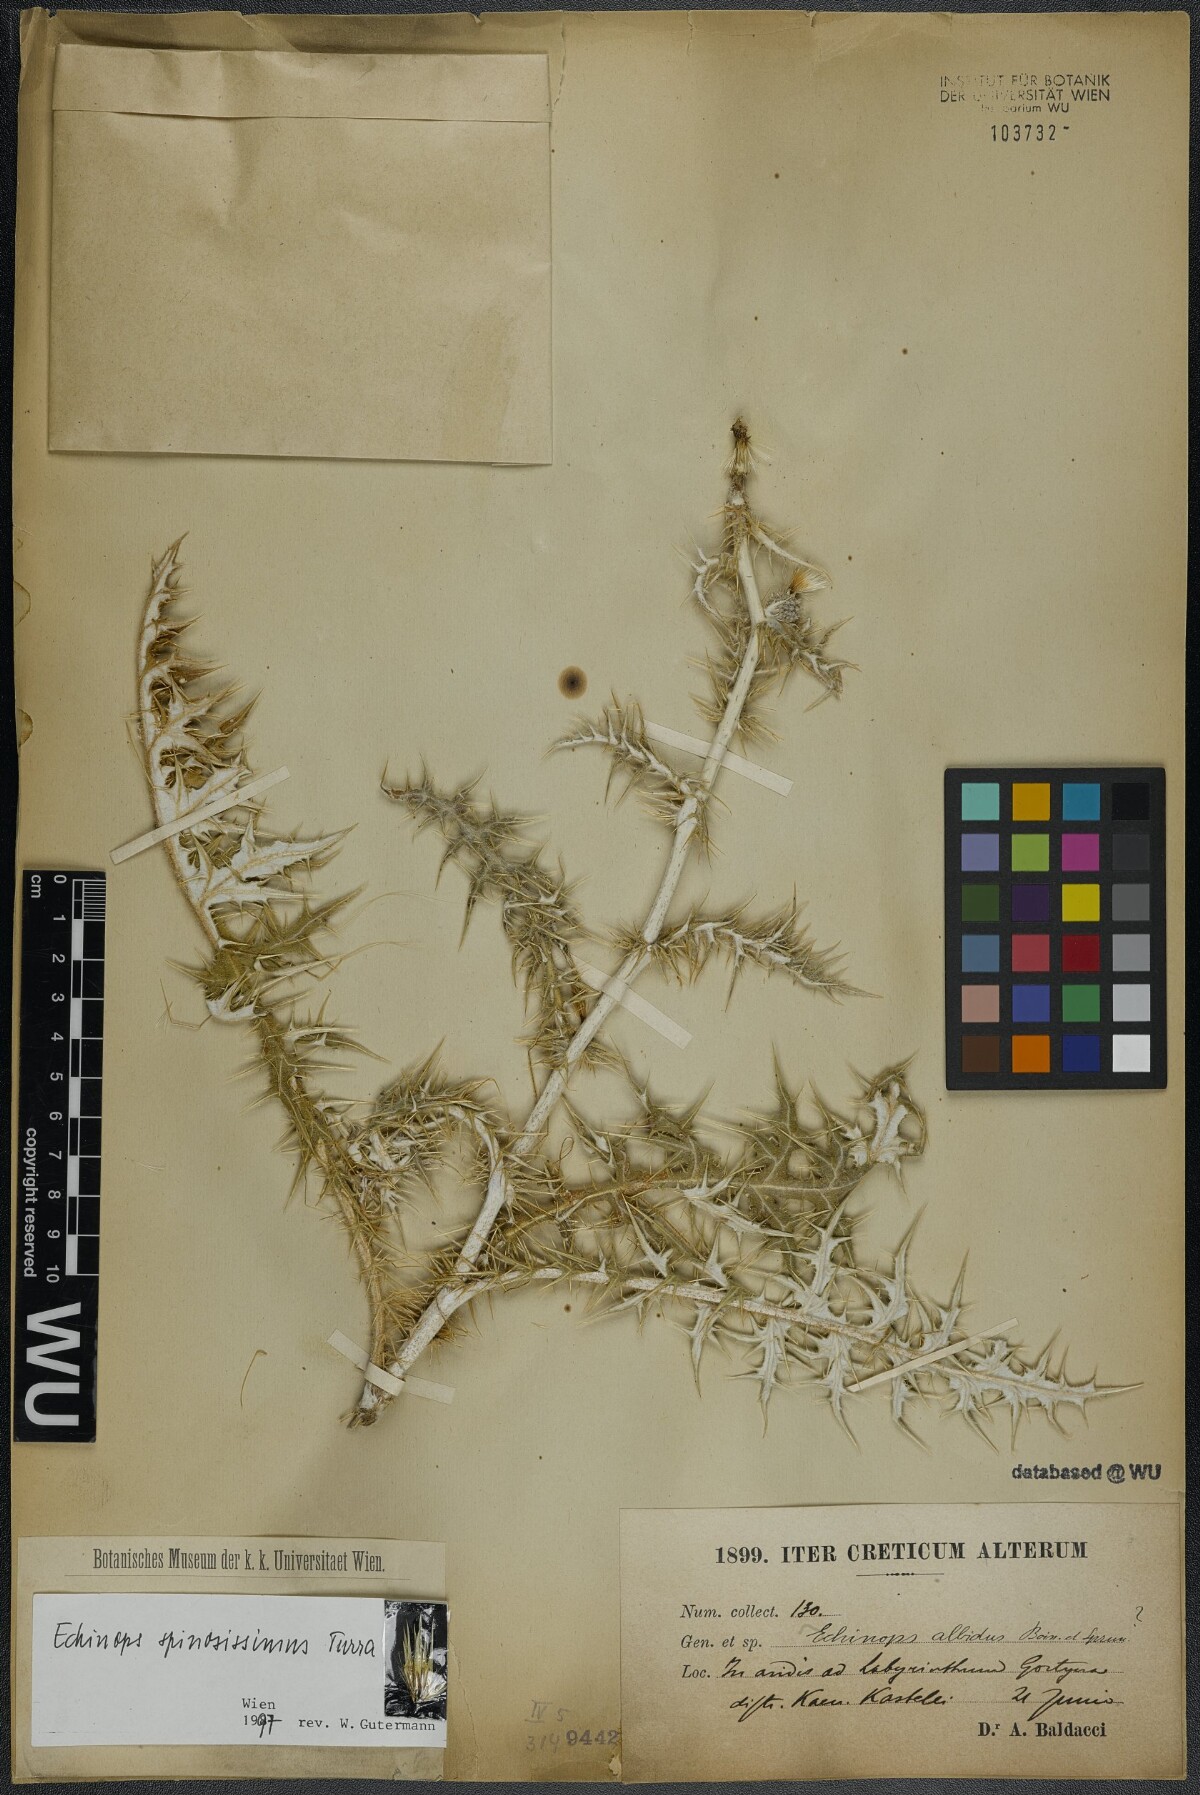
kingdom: Plantae
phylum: Tracheophyta
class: Magnoliopsida
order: Asterales
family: Asteraceae
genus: Echinops
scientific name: Echinops spinosissimus
